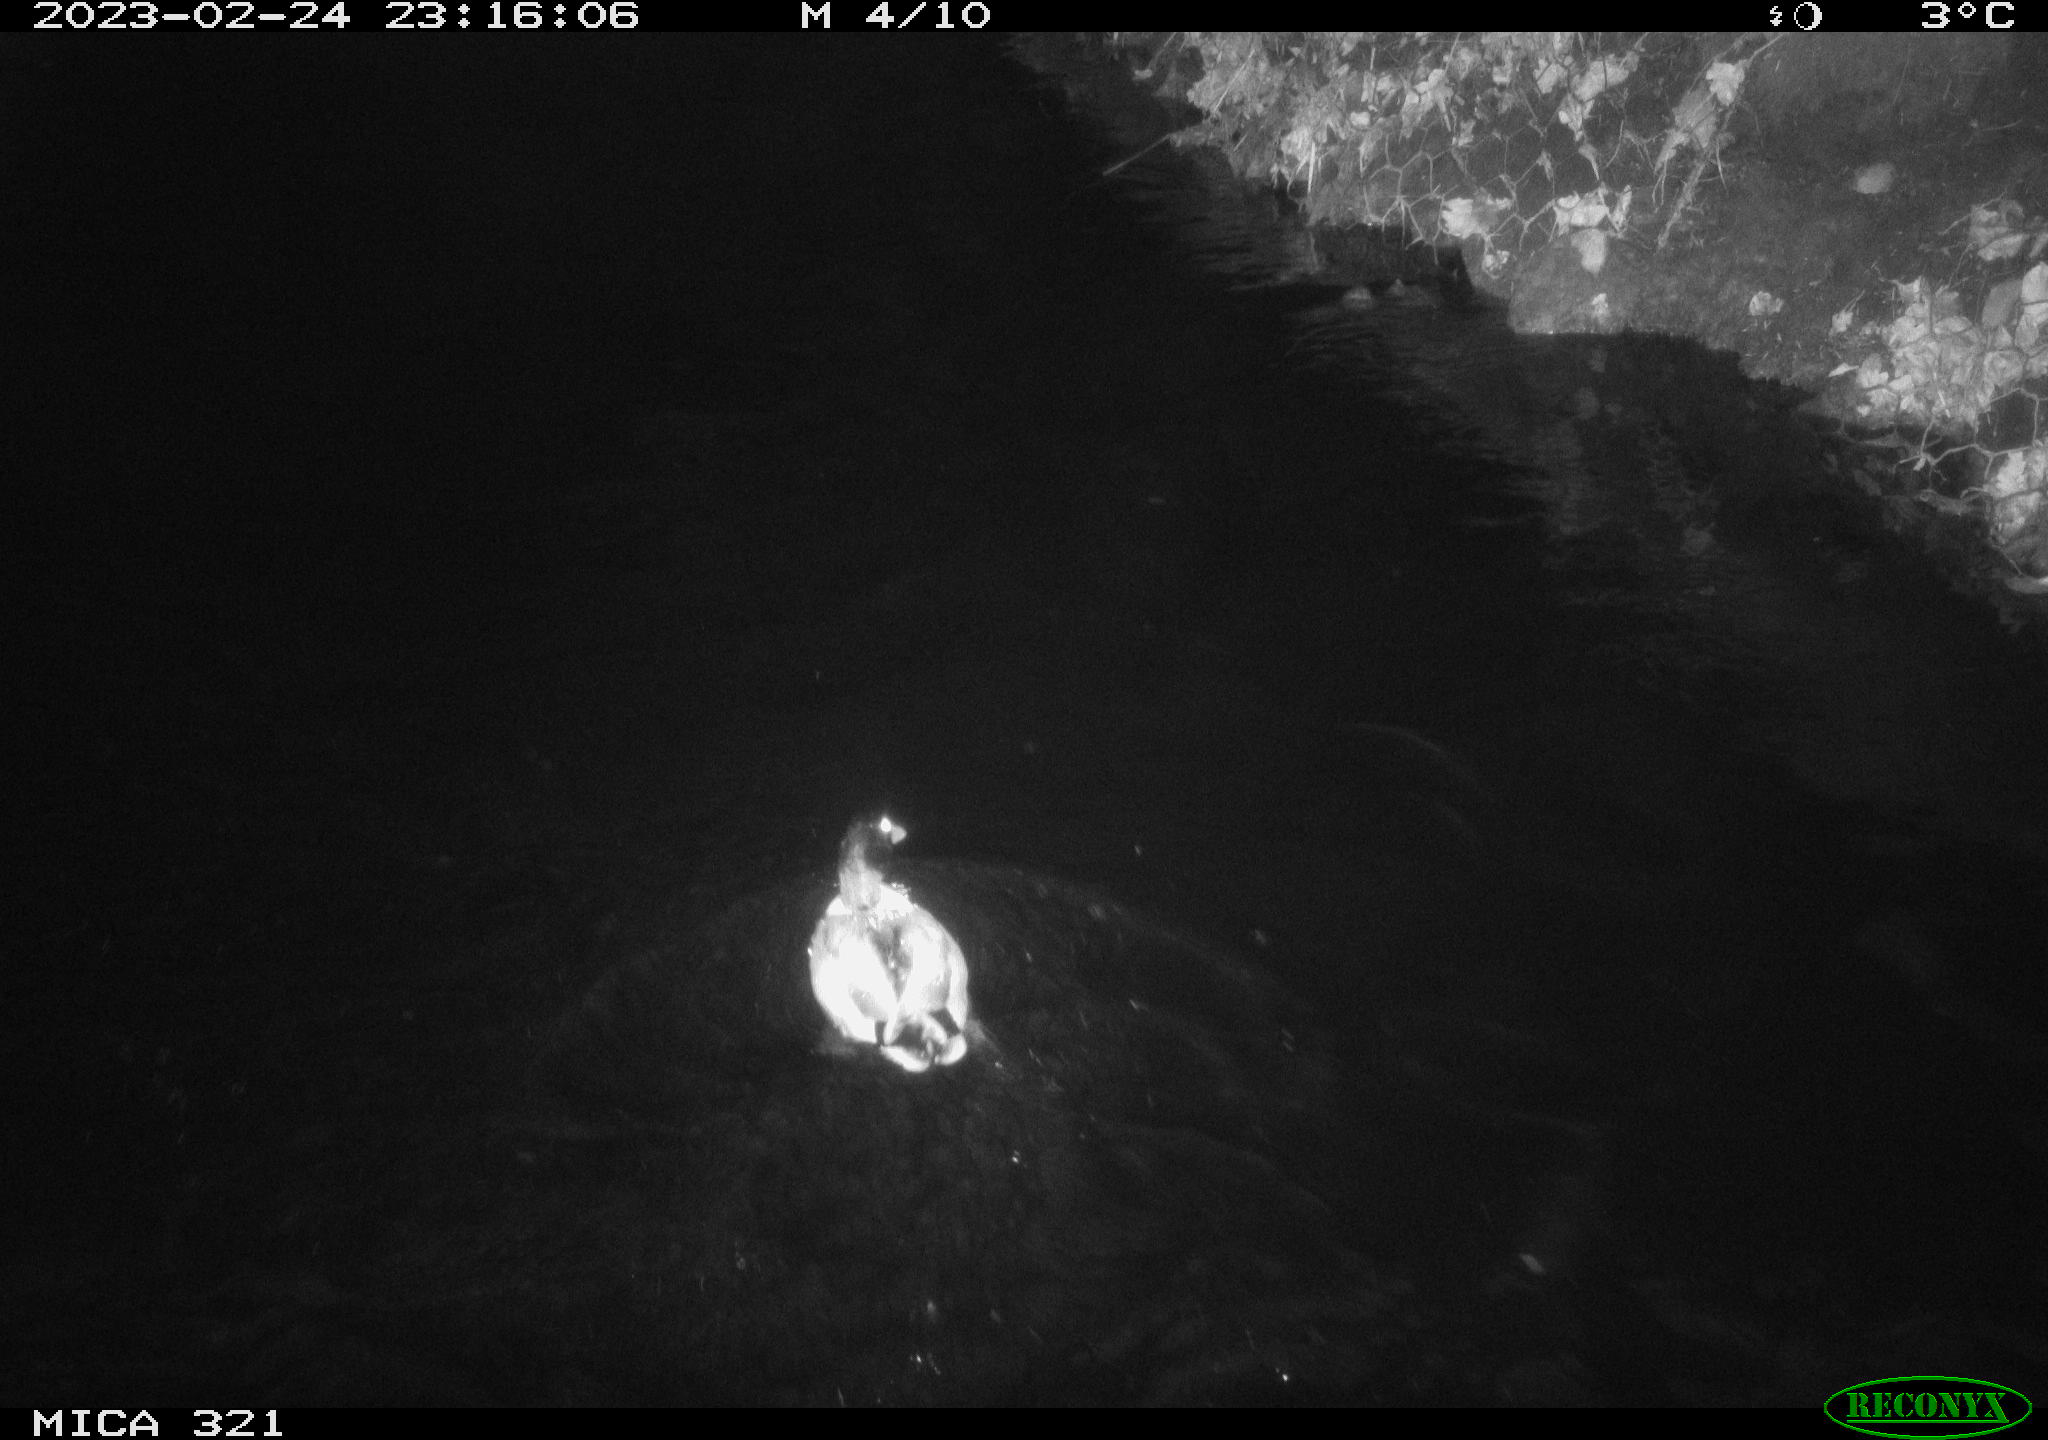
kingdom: Animalia
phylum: Chordata
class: Mammalia
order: Rodentia
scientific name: Rodentia
